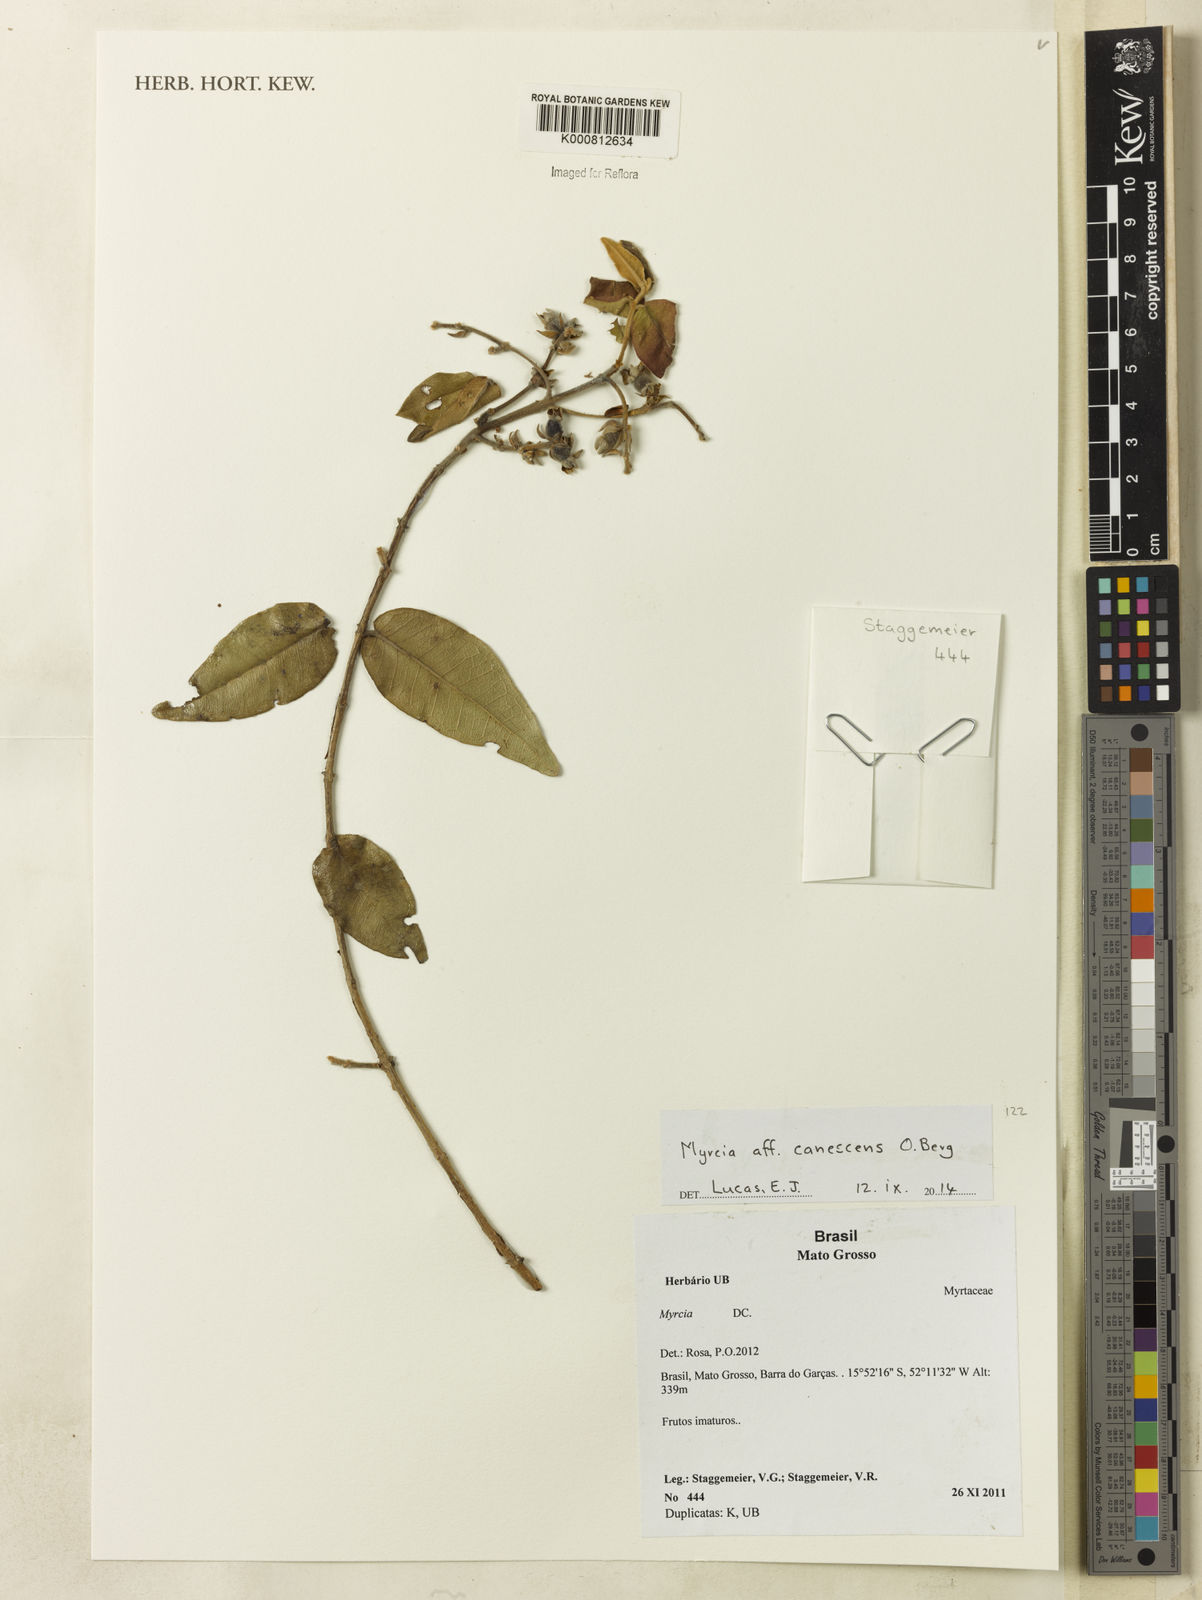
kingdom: Plantae
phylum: Tracheophyta
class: Magnoliopsida
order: Myrtales
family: Myrtaceae
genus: Myrcia
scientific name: Myrcia canescens
